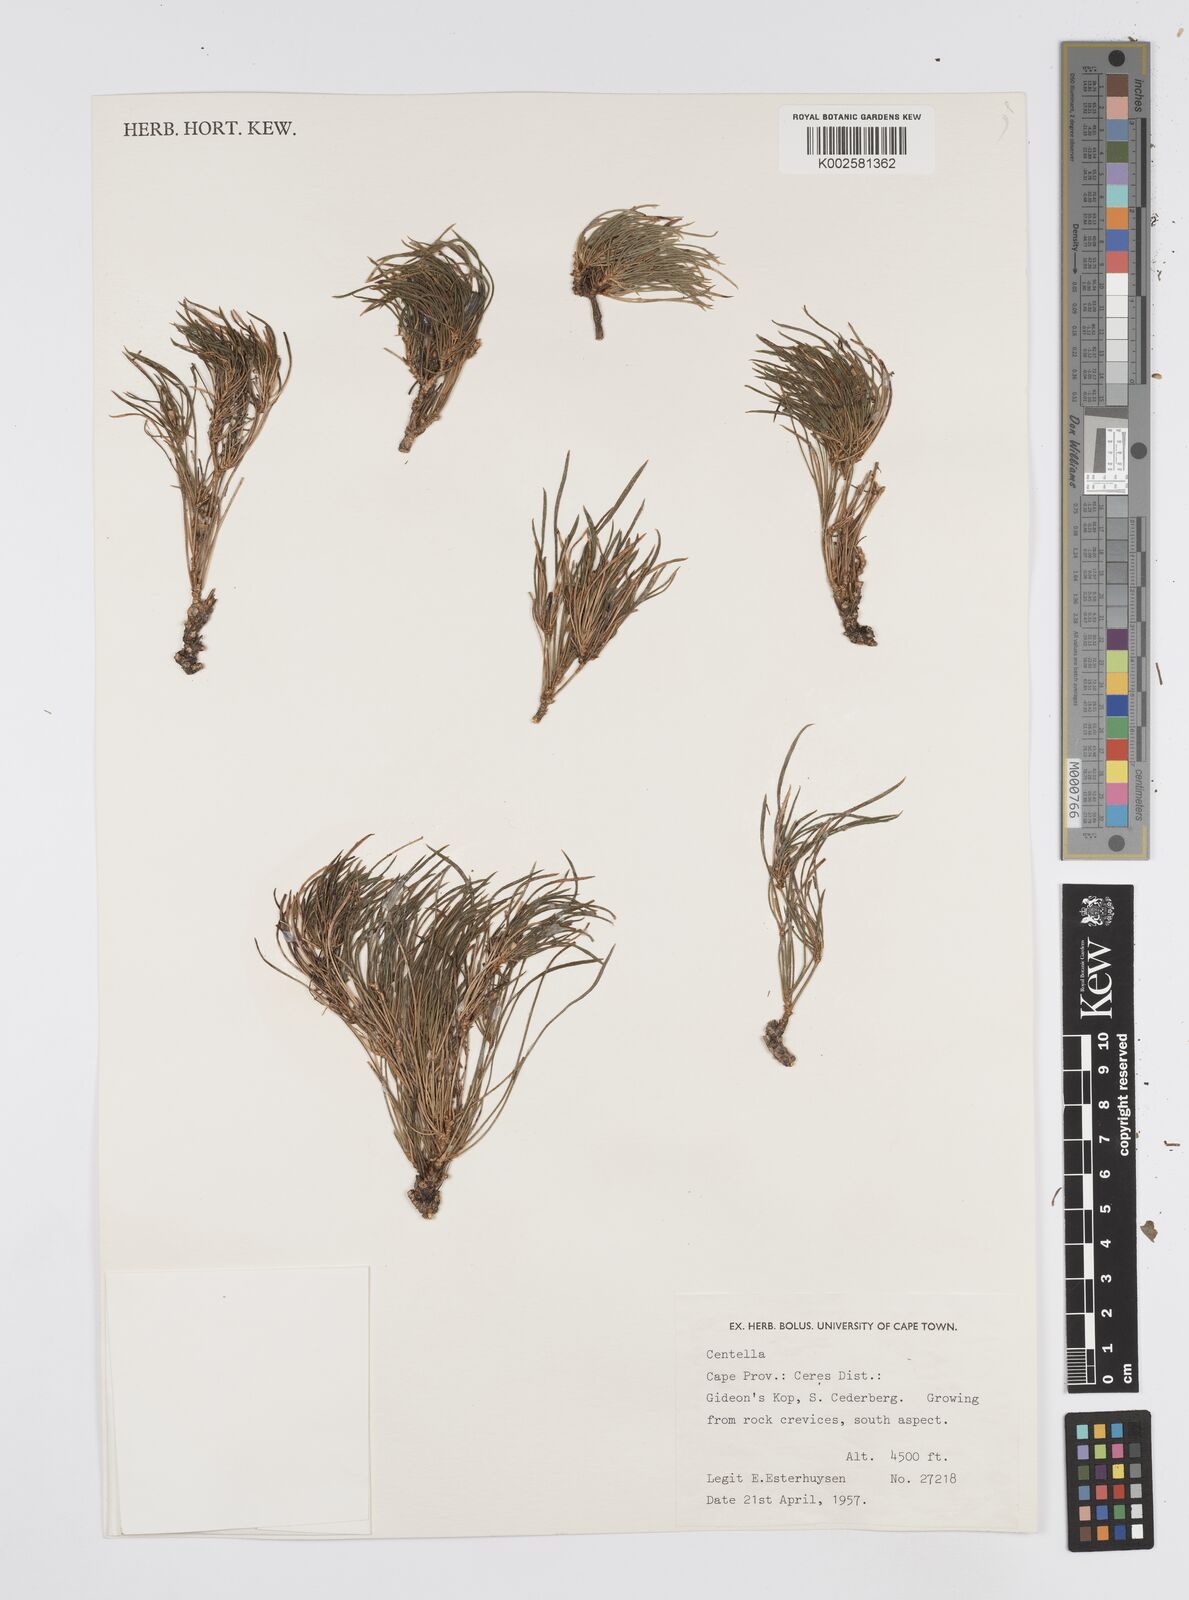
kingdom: Plantae
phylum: Tracheophyta
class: Magnoliopsida
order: Apiales
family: Apiaceae
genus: Centella
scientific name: Centella
